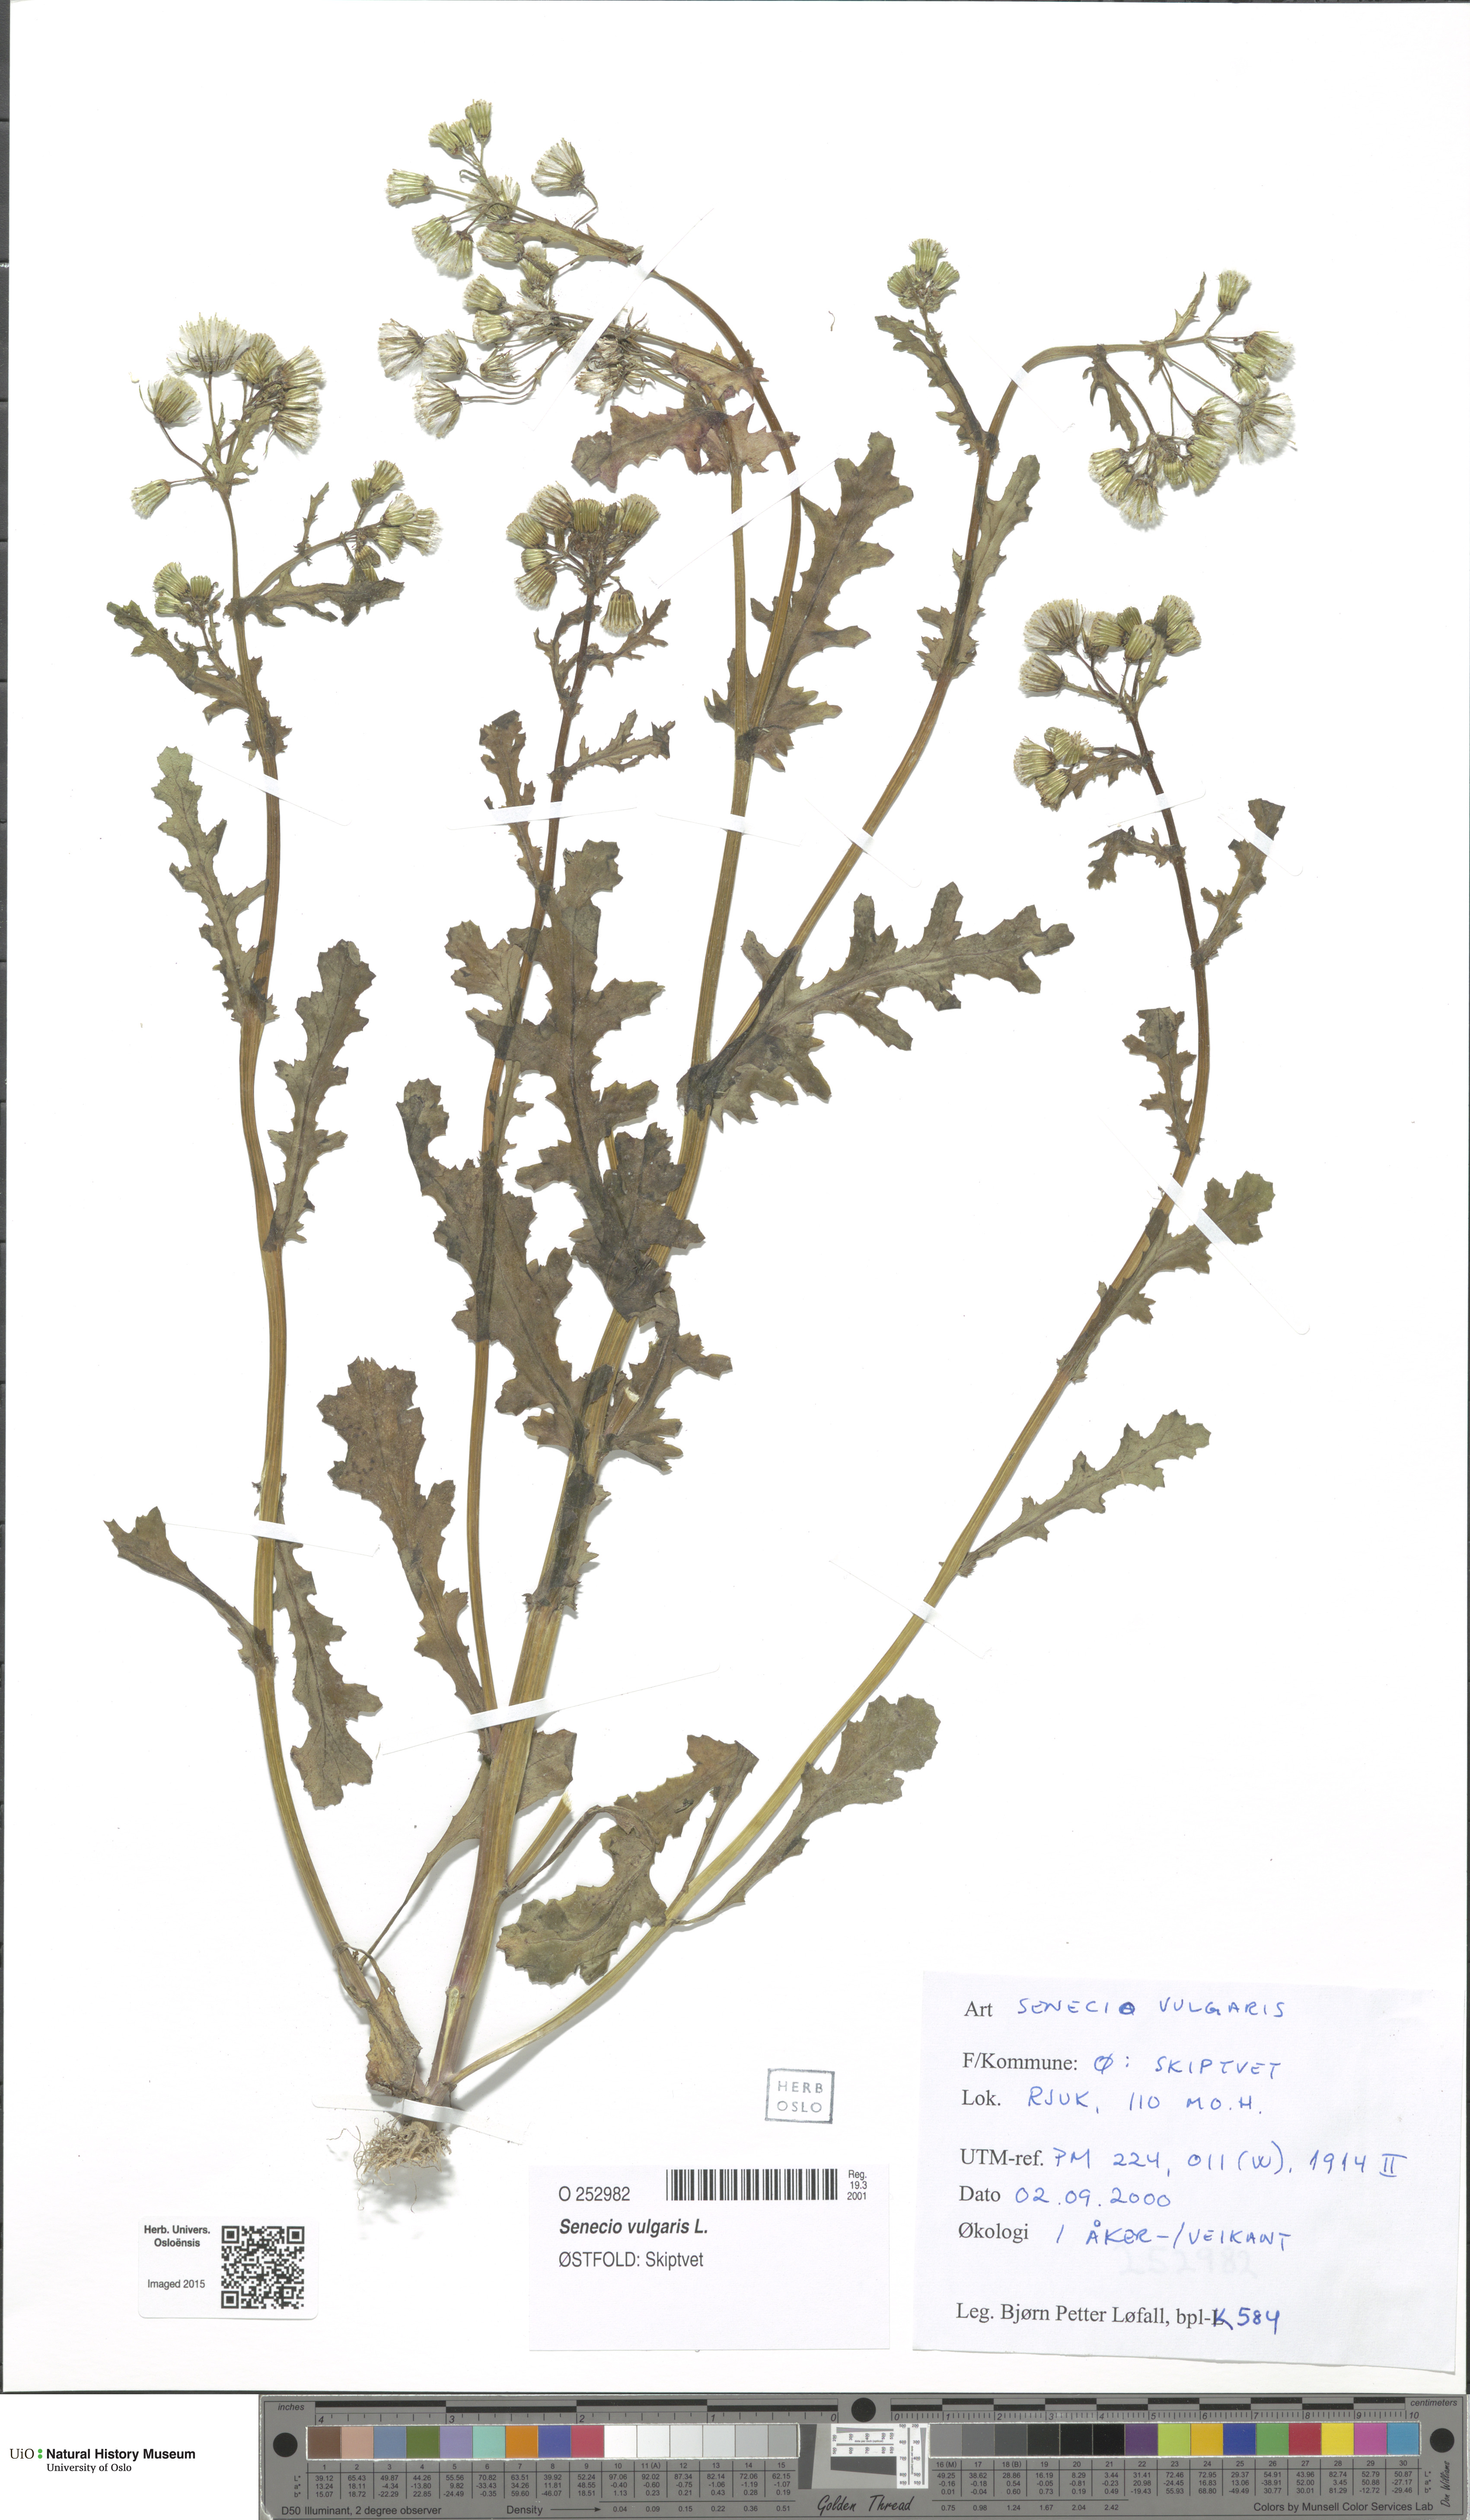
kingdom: Plantae
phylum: Tracheophyta
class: Magnoliopsida
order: Asterales
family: Asteraceae
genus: Senecio
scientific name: Senecio vulgaris
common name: Old-man-in-the-spring
